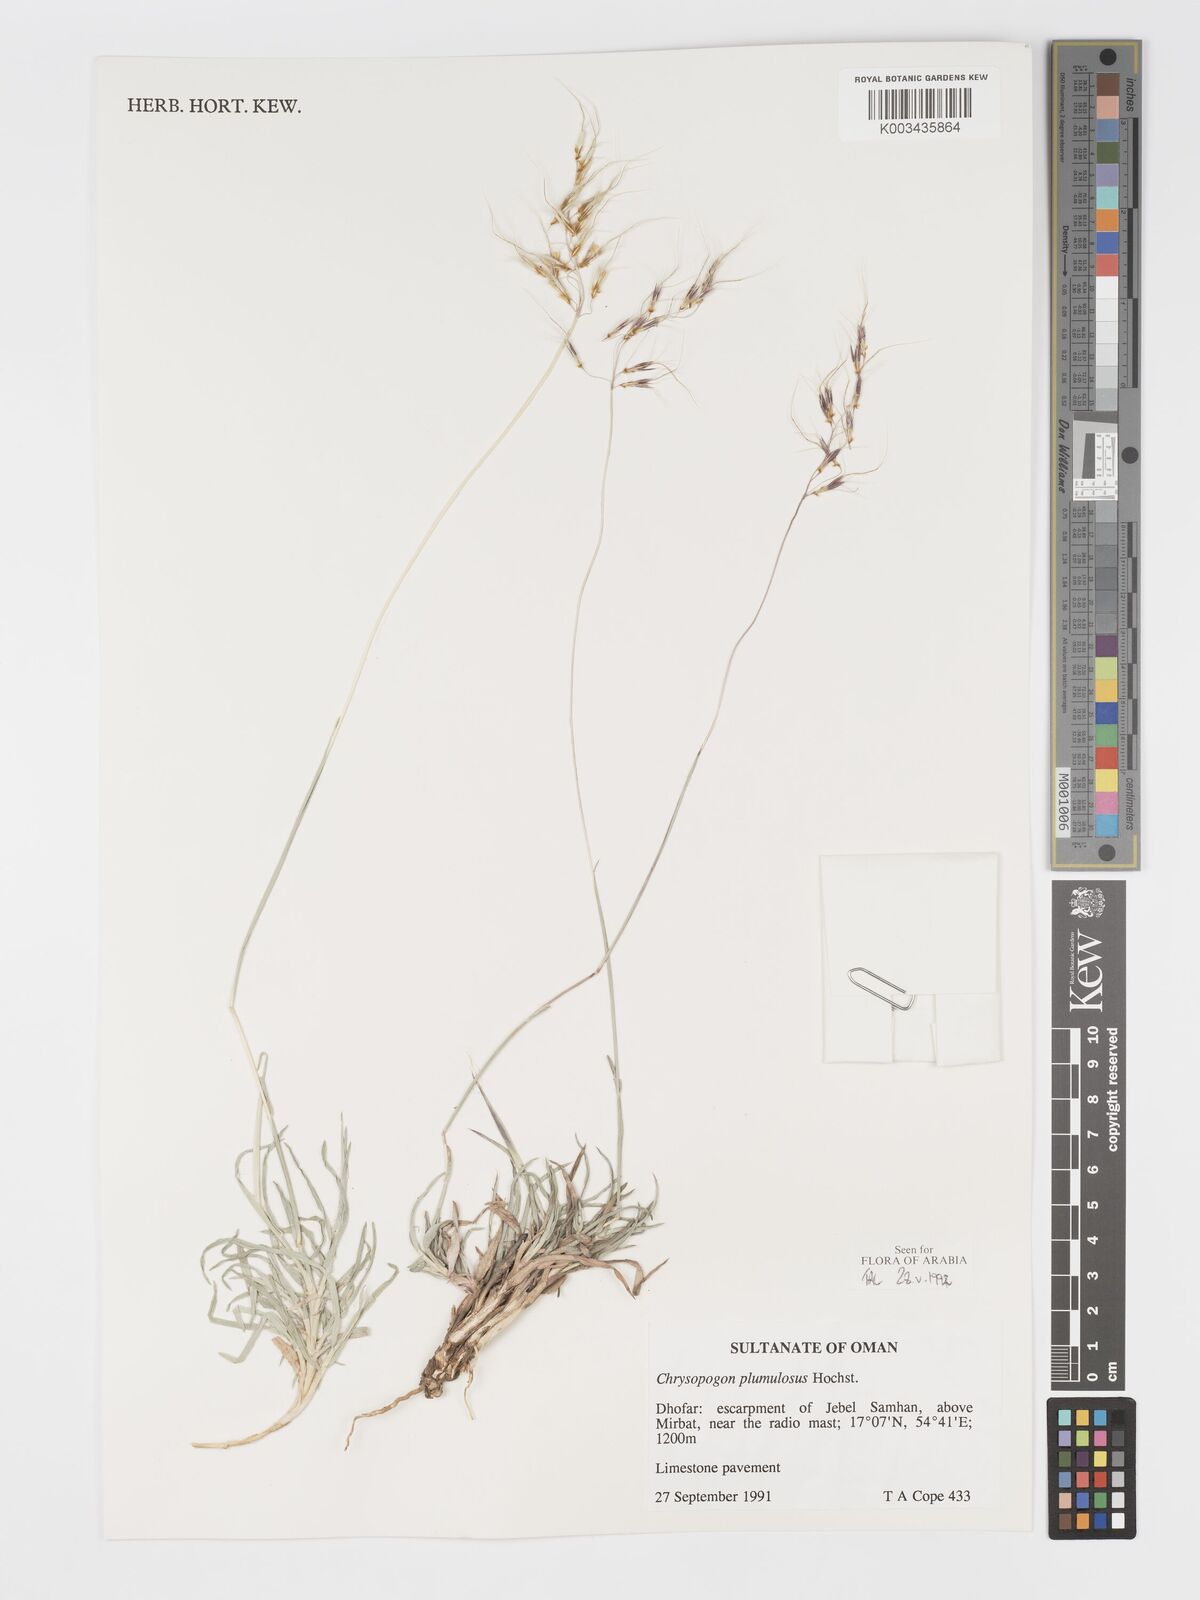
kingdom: Plantae
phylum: Tracheophyta
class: Liliopsida
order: Poales
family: Poaceae
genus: Chrysopogon
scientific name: Chrysopogon plumulosus
